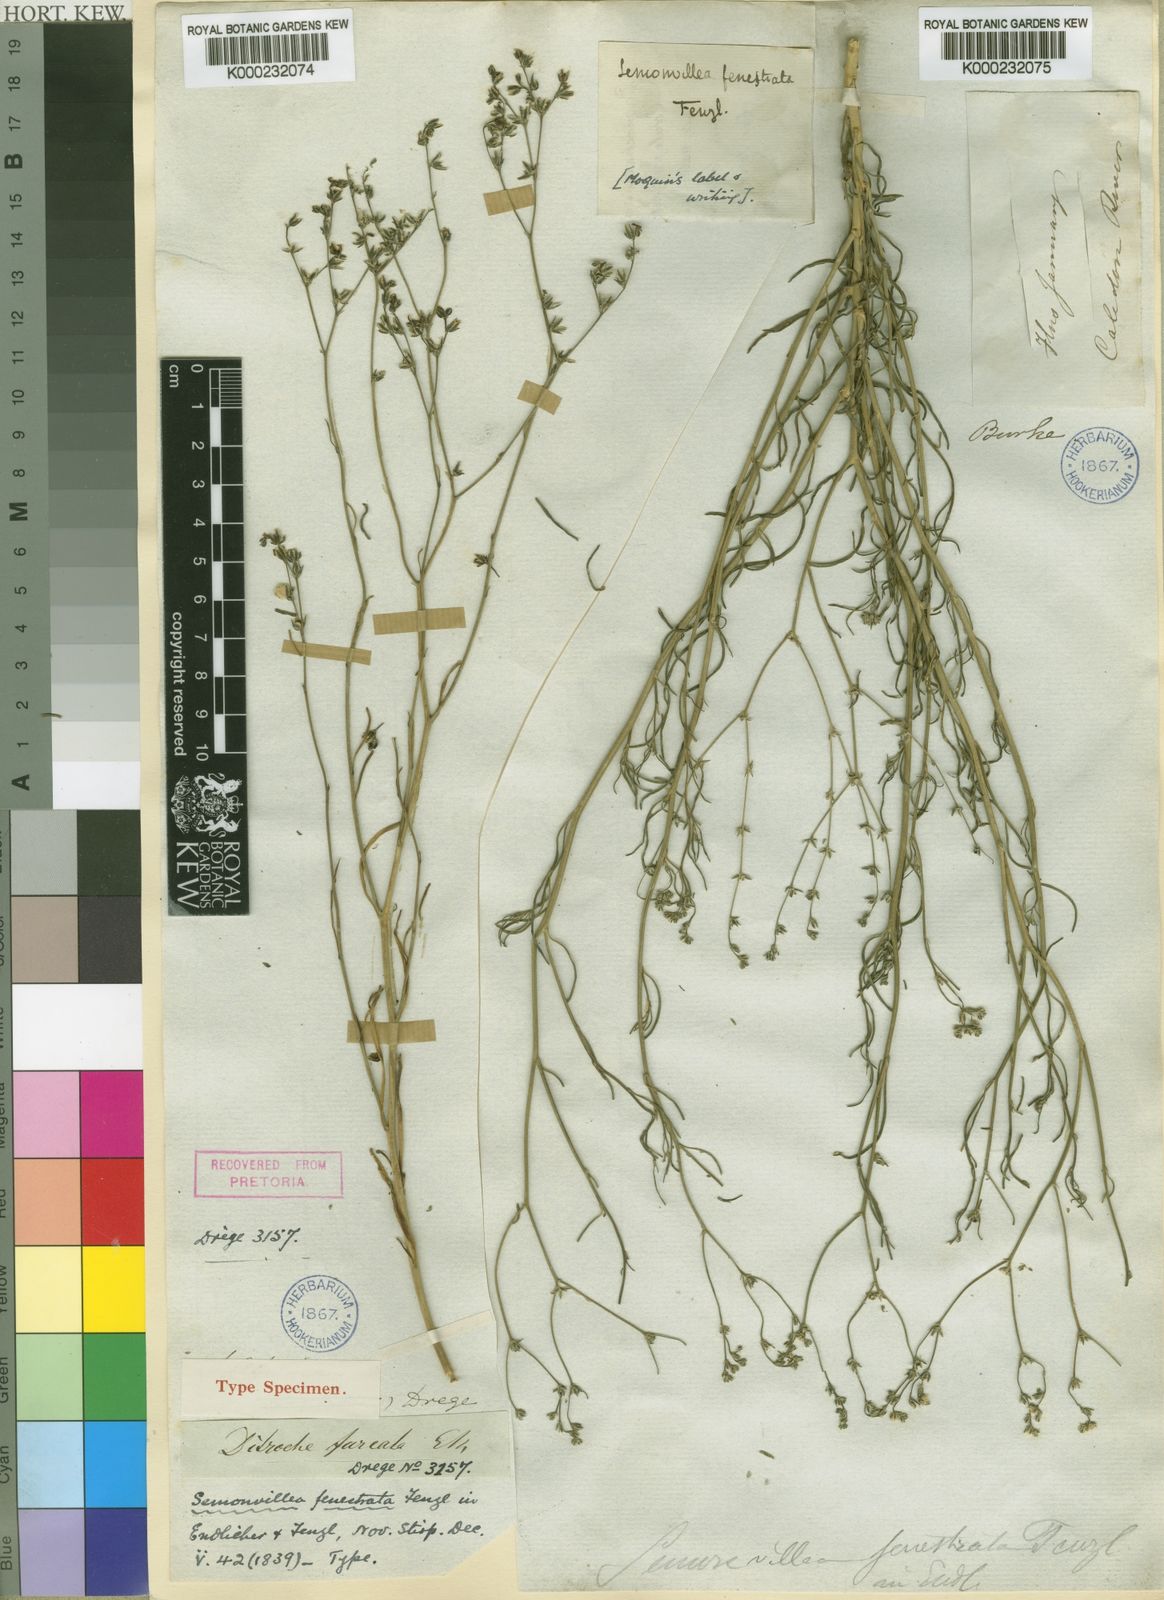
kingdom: Plantae
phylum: Tracheophyta
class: Magnoliopsida
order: Caryophyllales
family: Limeaceae
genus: Limeum
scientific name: Limeum fenestratum
